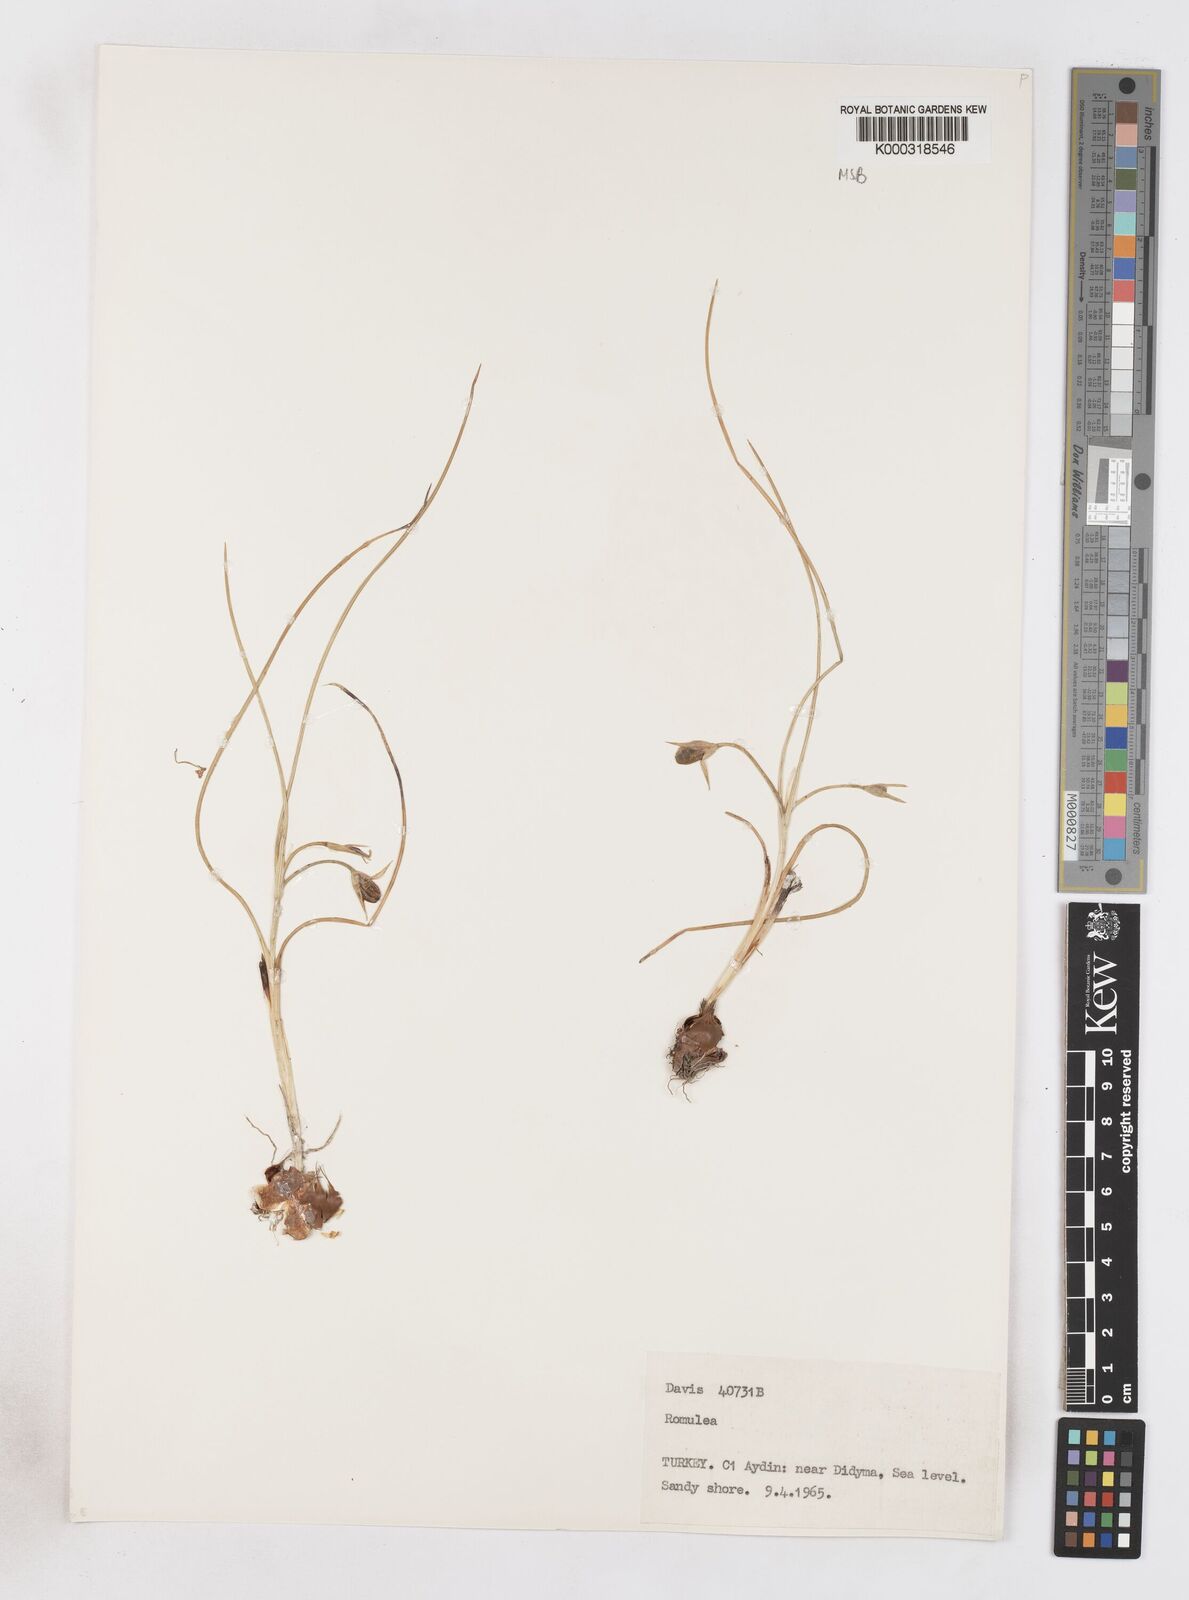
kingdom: Plantae
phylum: Tracheophyta
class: Liliopsida
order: Asparagales
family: Iridaceae
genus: Romulea
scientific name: Romulea ramiflora
